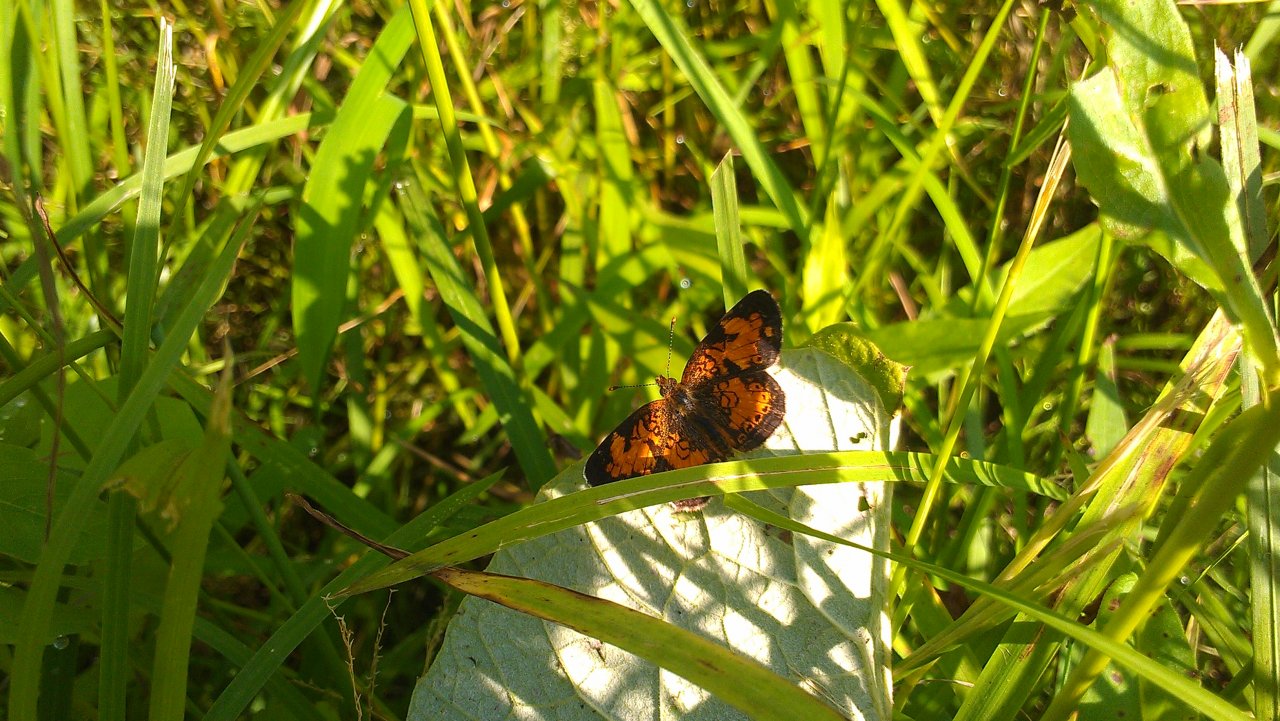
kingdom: Animalia
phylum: Arthropoda
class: Insecta
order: Lepidoptera
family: Nymphalidae
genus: Phyciodes
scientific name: Phyciodes tharos
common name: Northern Crescent
